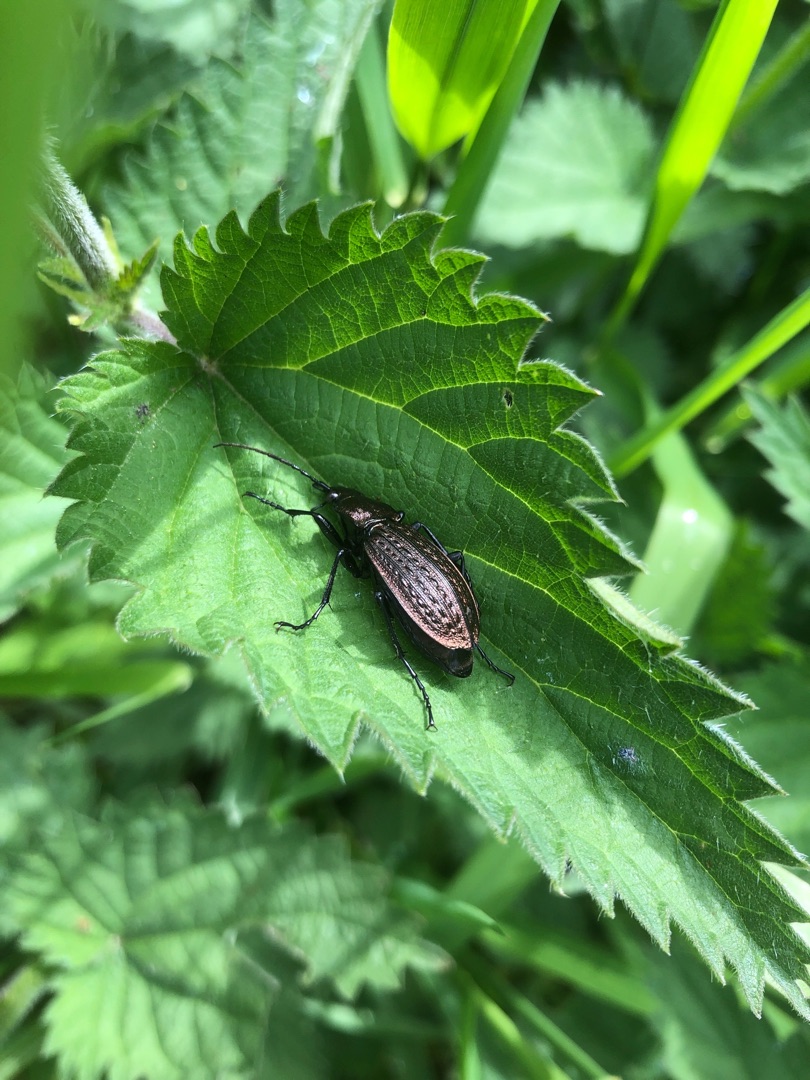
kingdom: Animalia
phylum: Arthropoda
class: Insecta
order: Coleoptera
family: Carabidae
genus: Carabus
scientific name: Carabus granulatus
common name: Kornet løber
